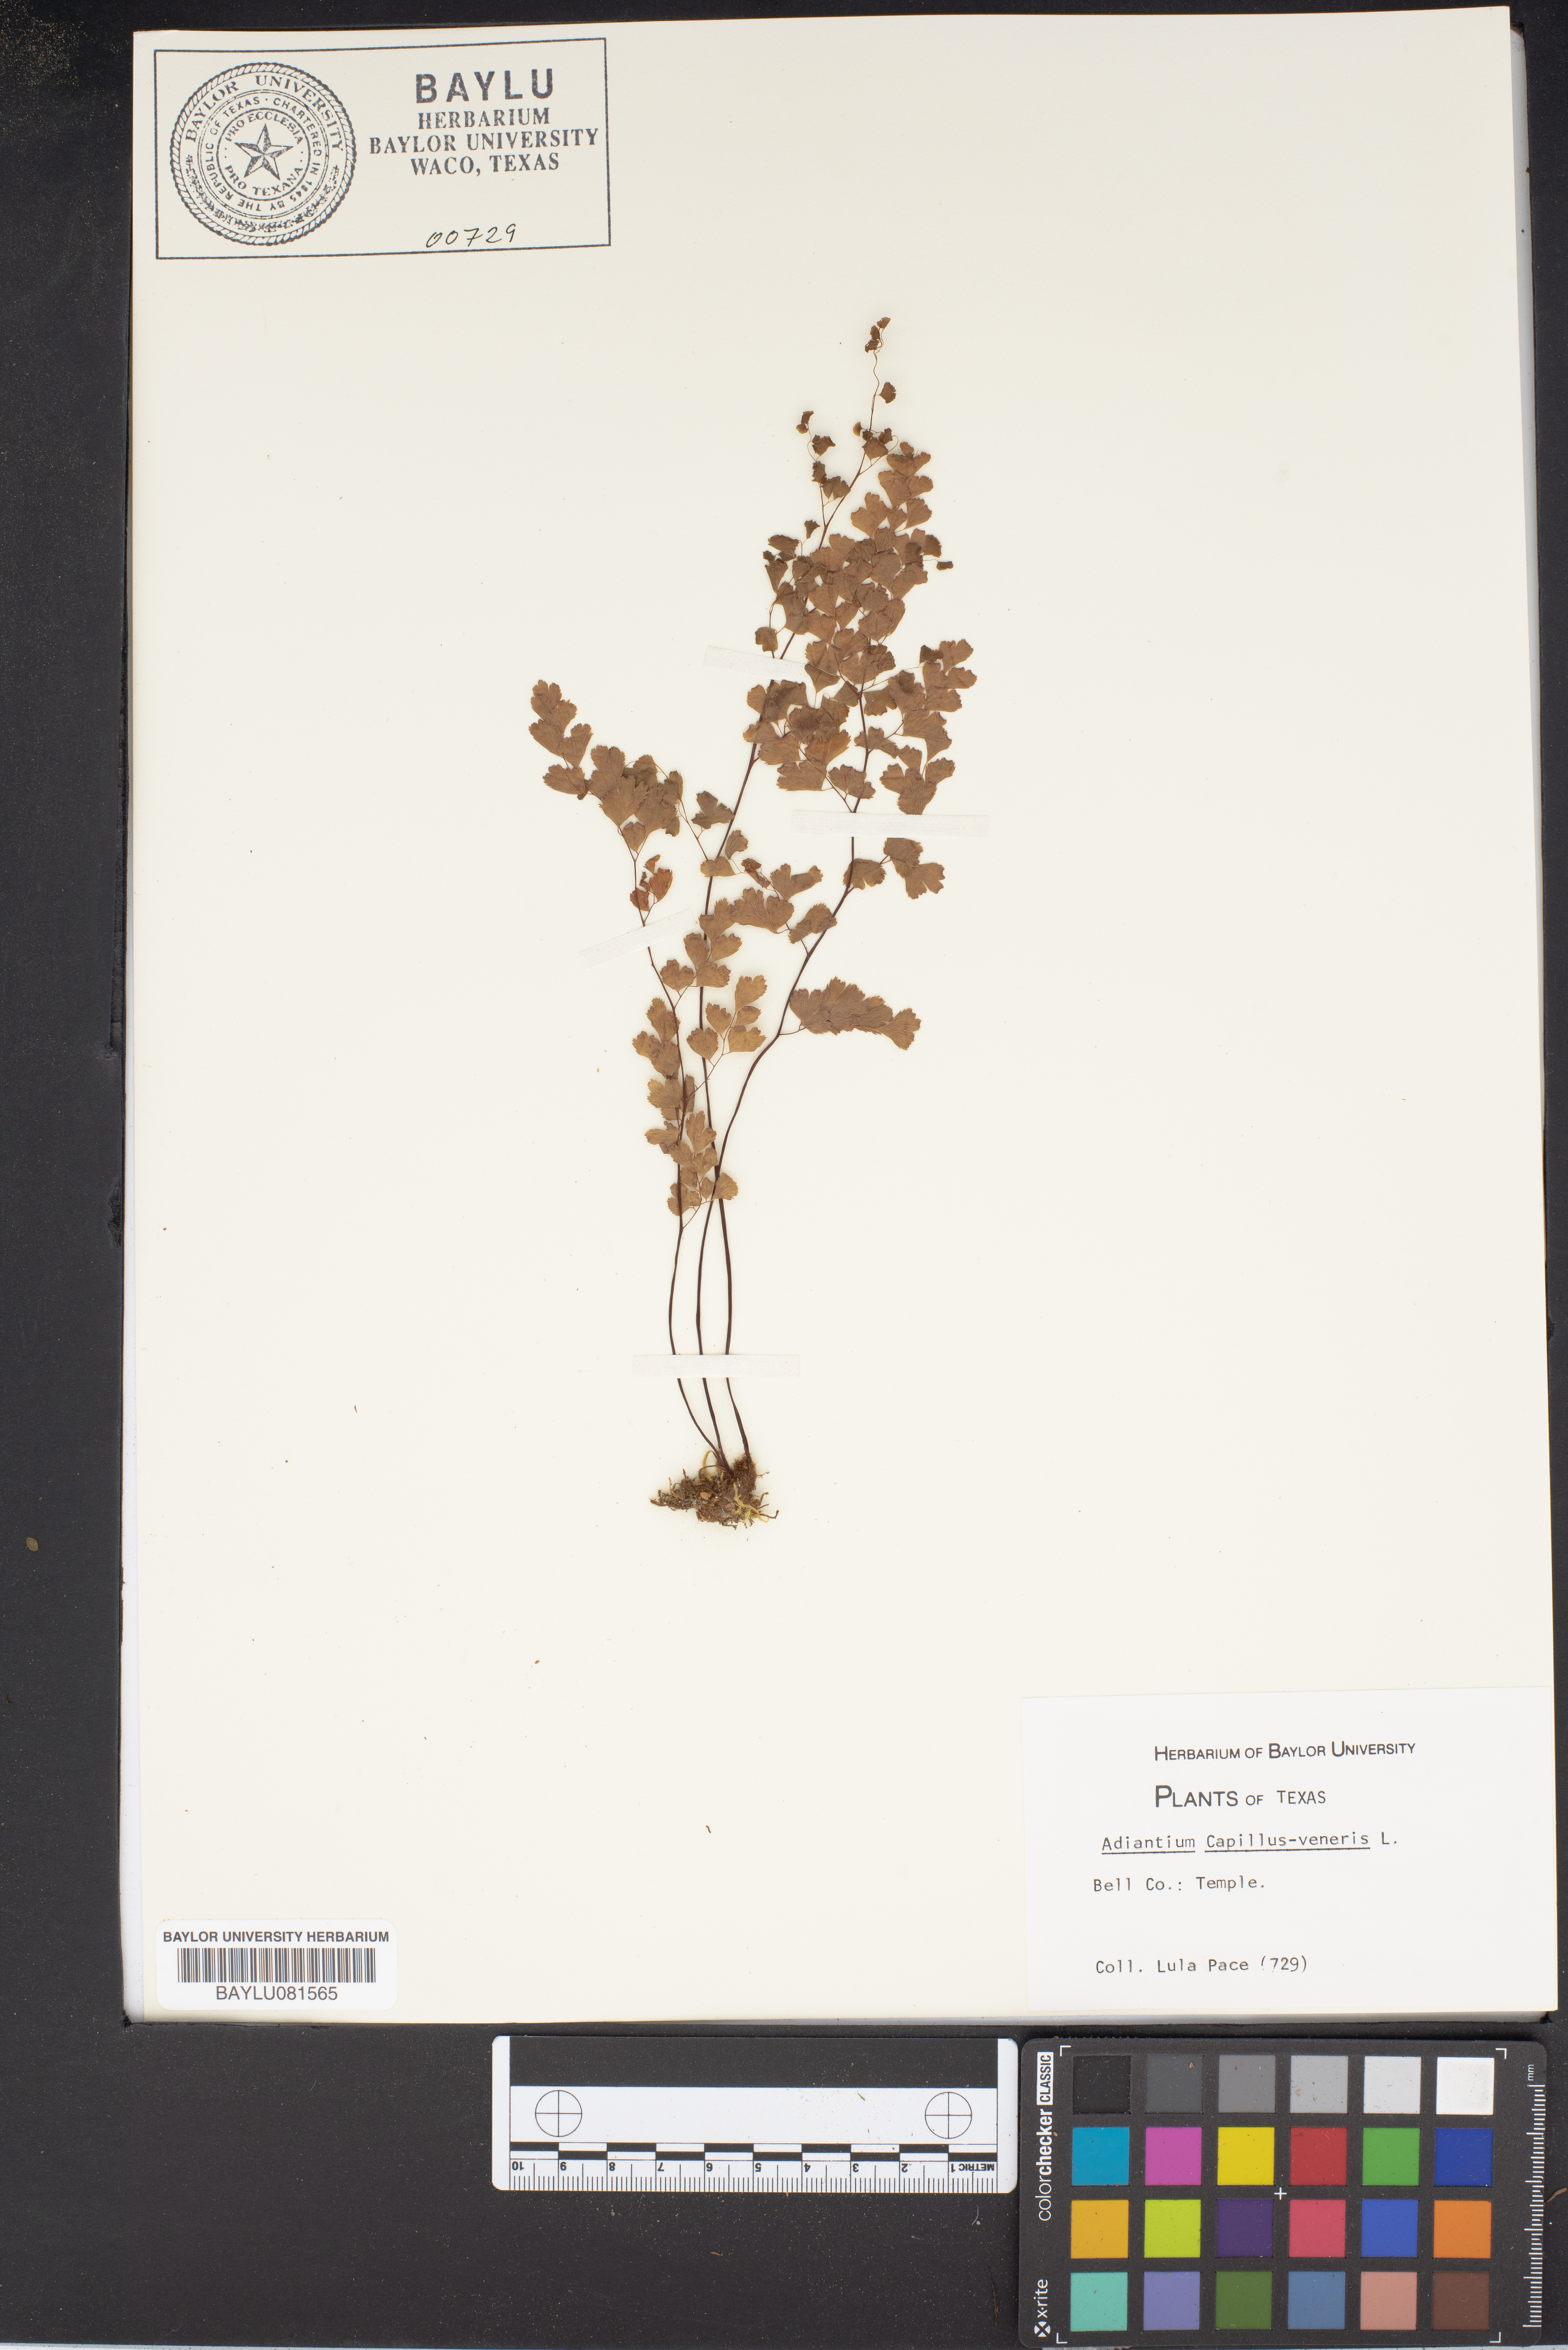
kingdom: Plantae
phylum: Tracheophyta
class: Polypodiopsida
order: Polypodiales
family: Pteridaceae
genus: Adiantum
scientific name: Adiantum capillus-veneris
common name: Maidenhair fern
